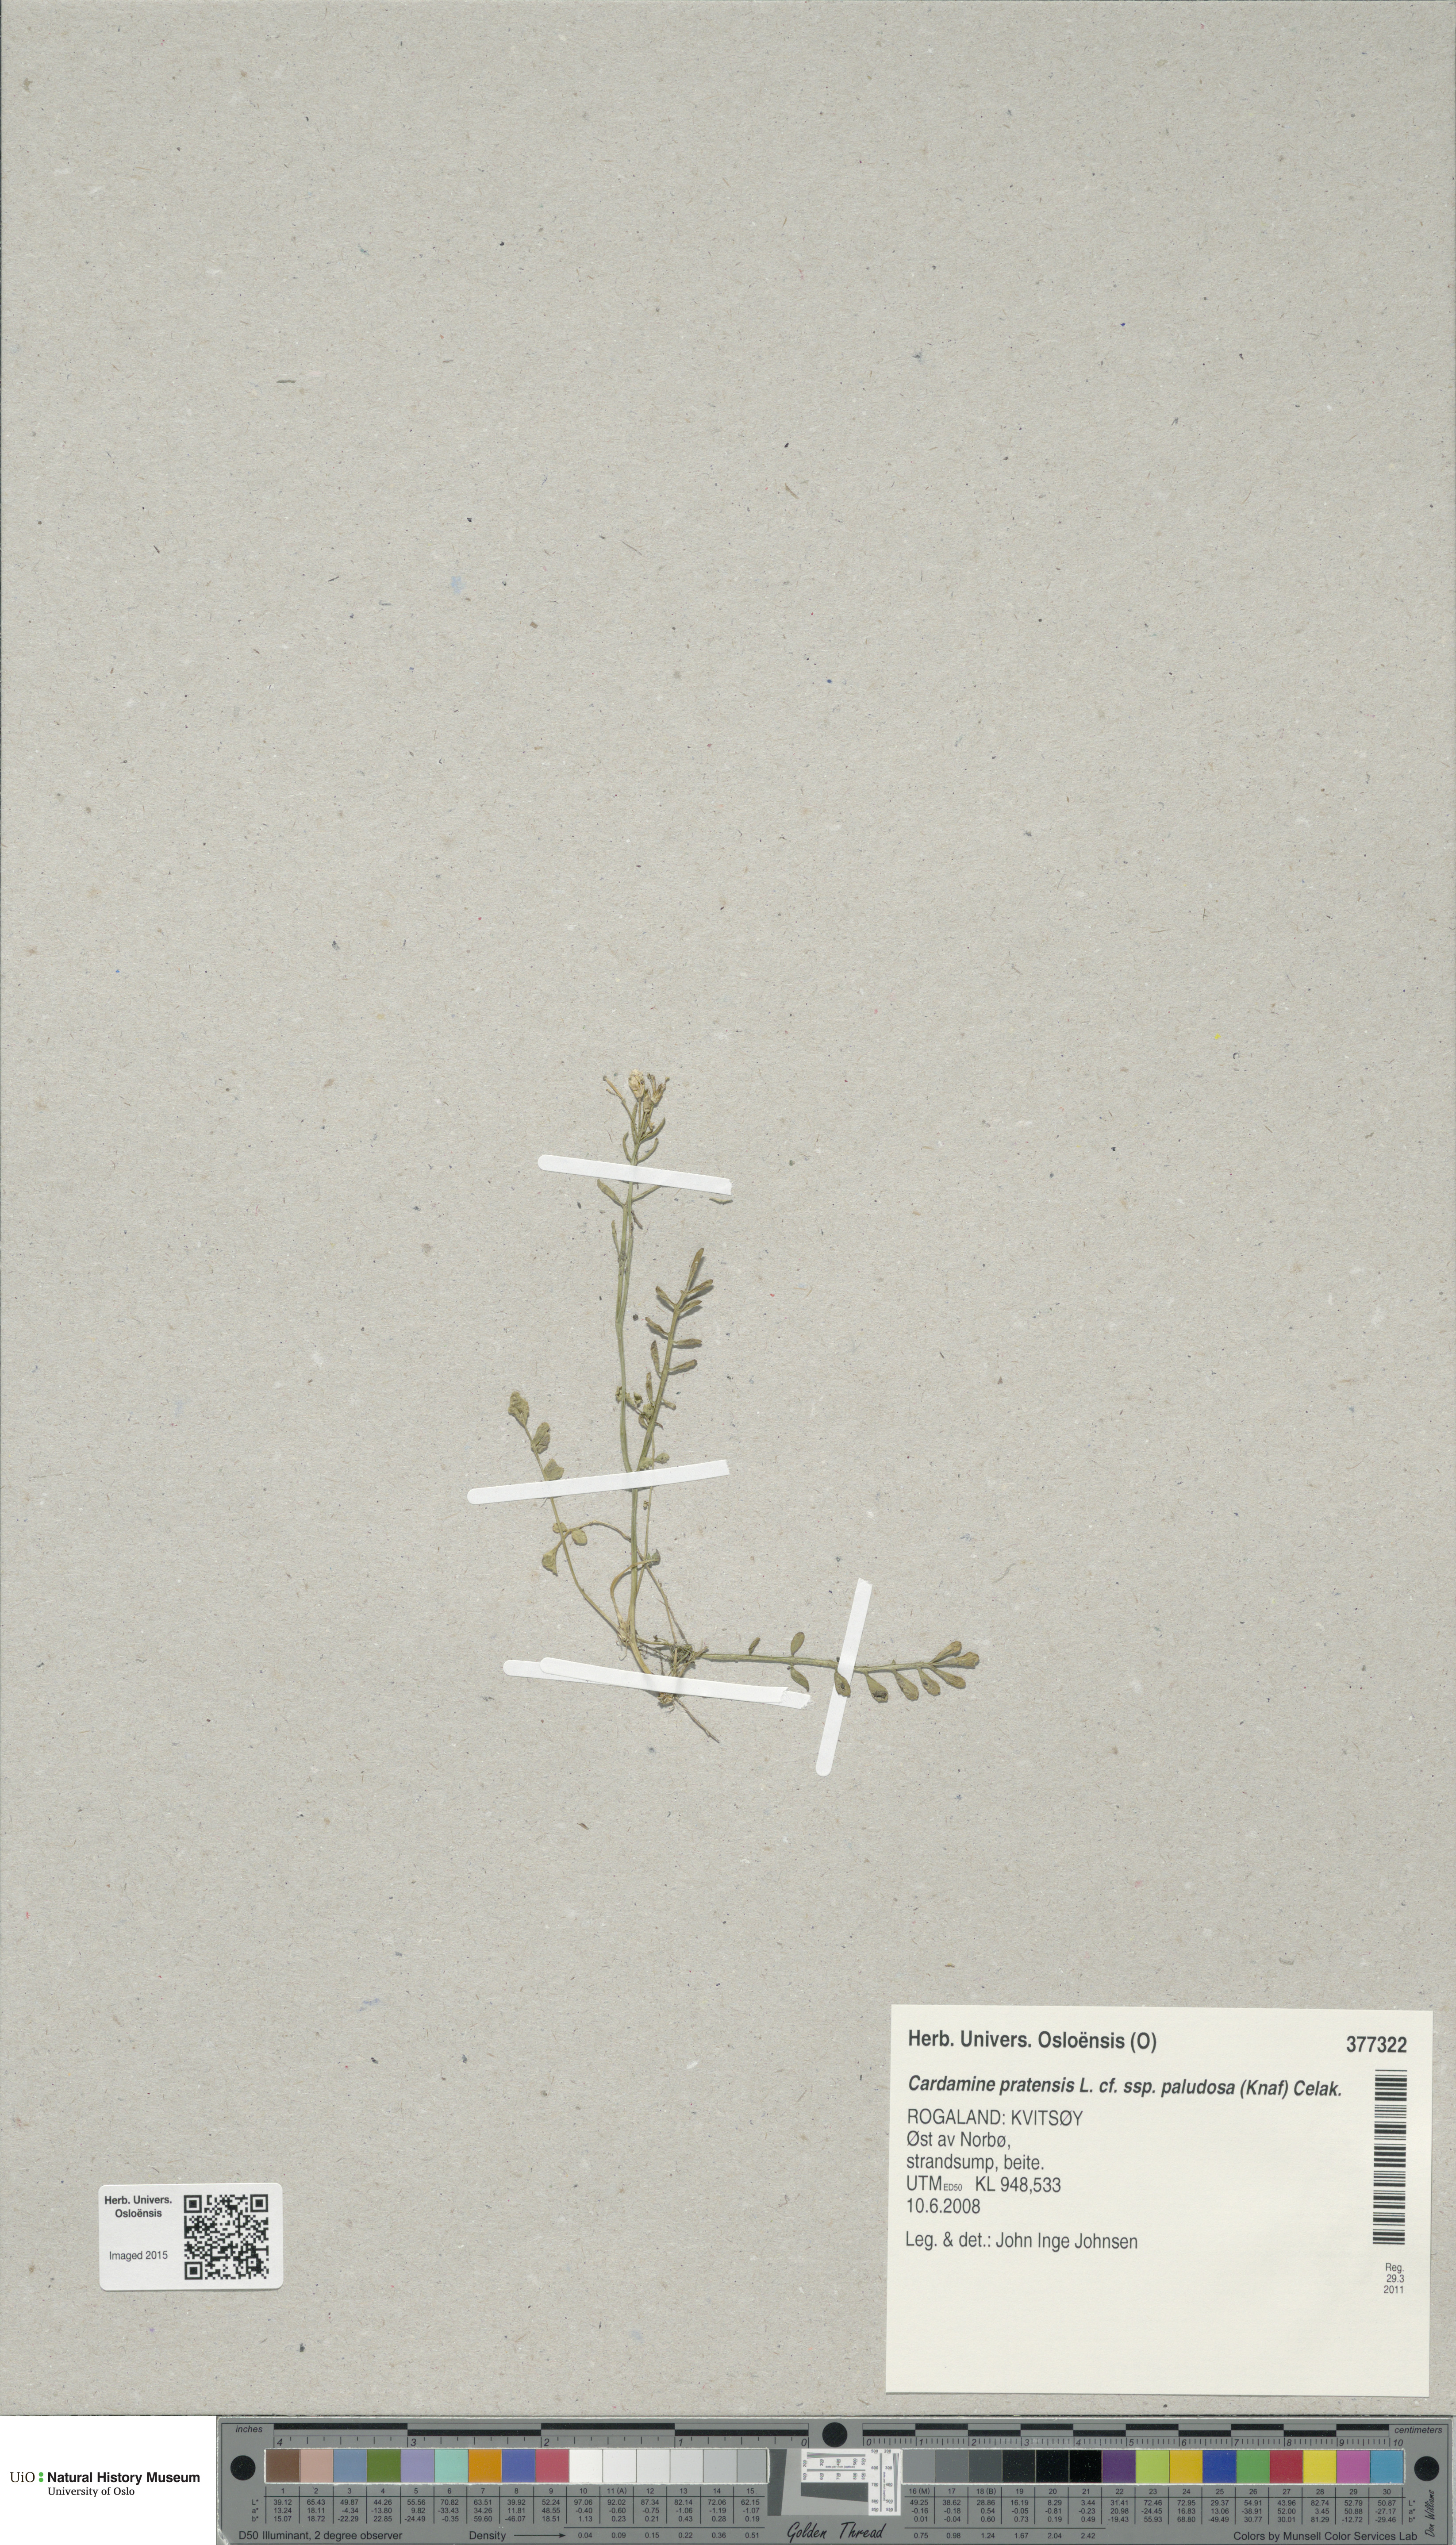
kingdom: Plantae
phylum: Tracheophyta
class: Magnoliopsida
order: Brassicales
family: Brassicaceae
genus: Cardamine
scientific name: Cardamine dentata
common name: Toothed bittercress
